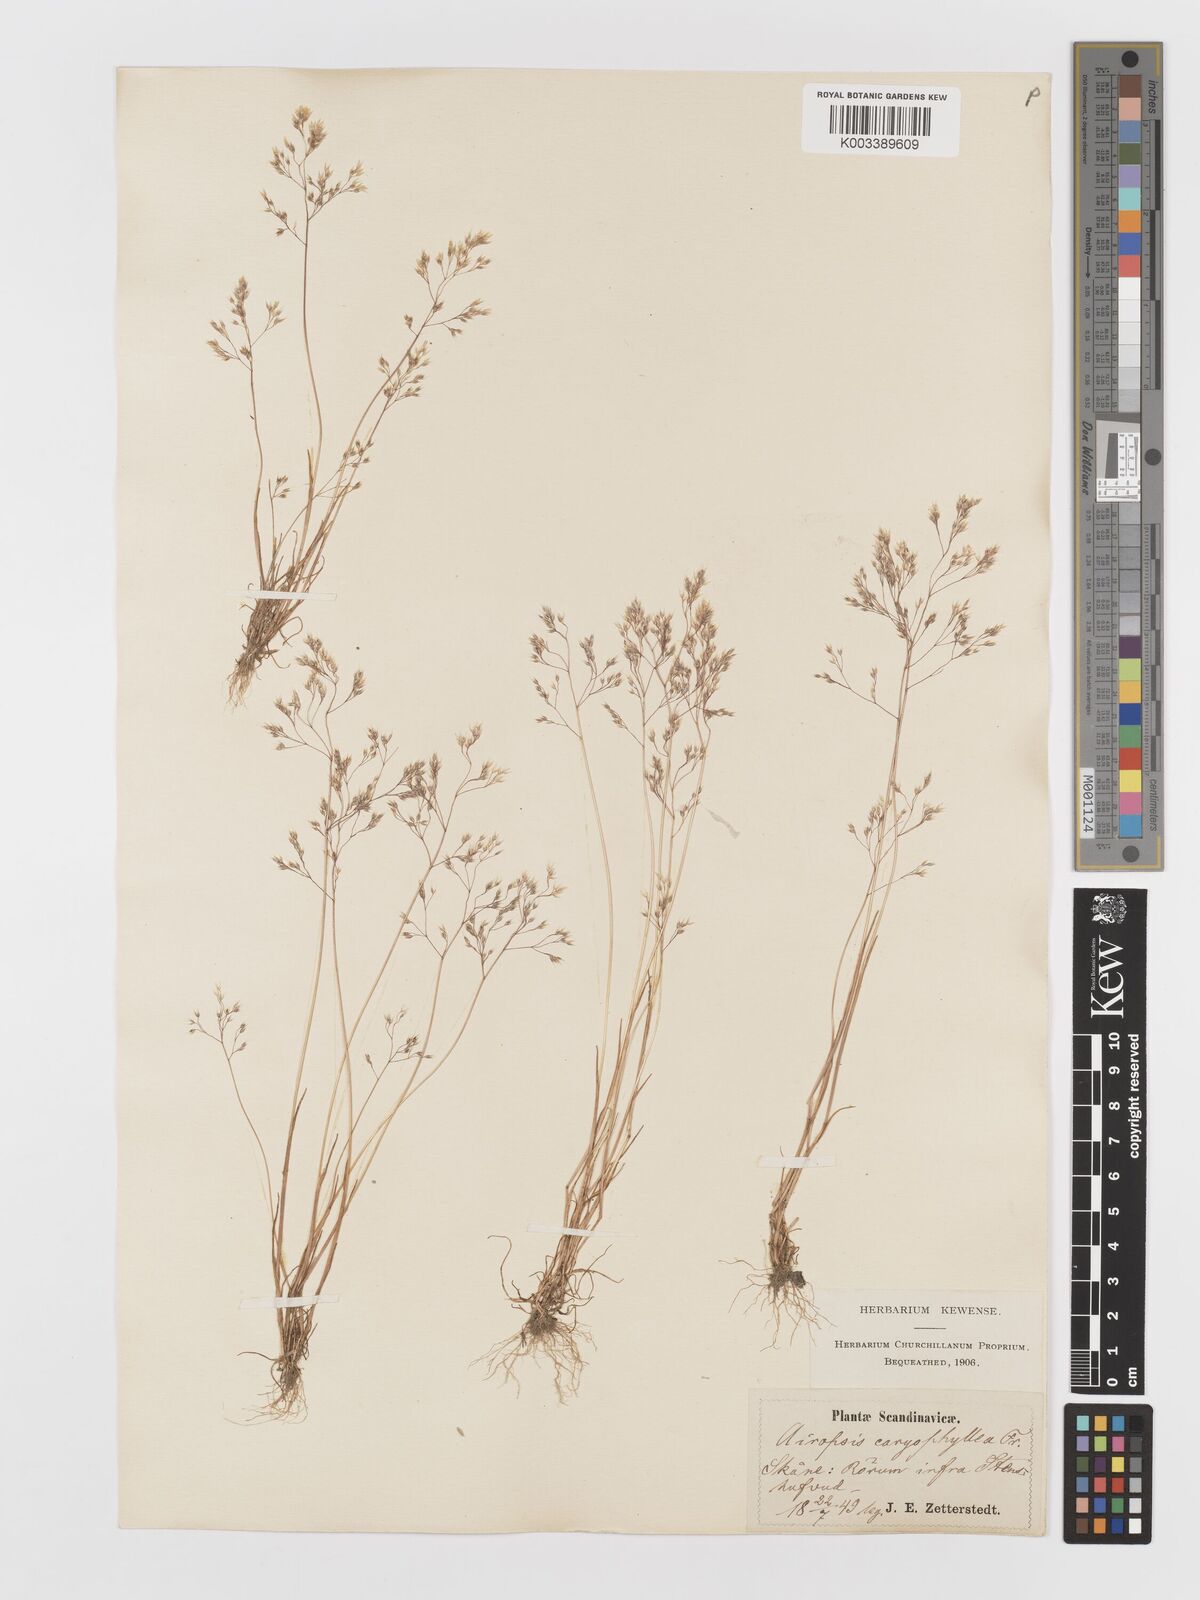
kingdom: Plantae
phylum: Tracheophyta
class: Liliopsida
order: Poales
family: Poaceae
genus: Aira
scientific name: Aira caryophyllea
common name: Silver hairgrass
